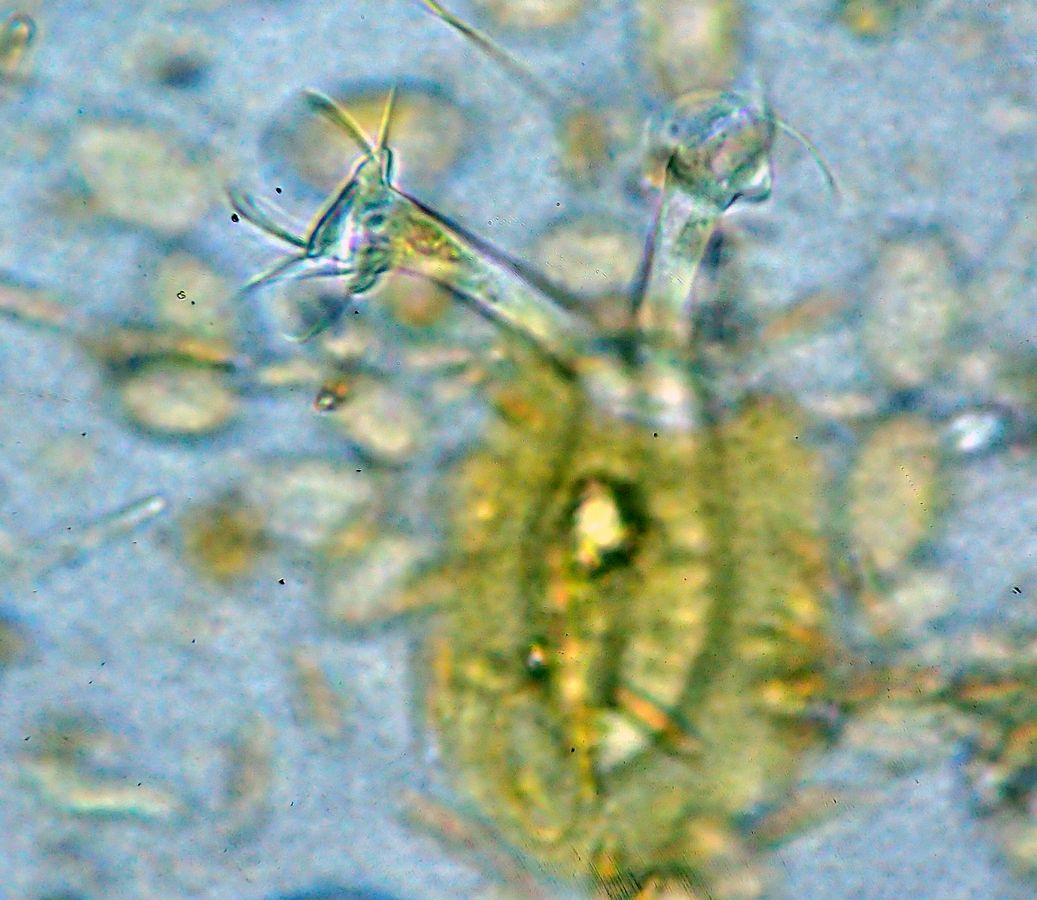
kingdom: Chromista
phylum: Ciliophora
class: Oligohymenophorea
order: Peritrichida
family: Vaginicolidae
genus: Platycola
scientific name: Platycola decumbens
